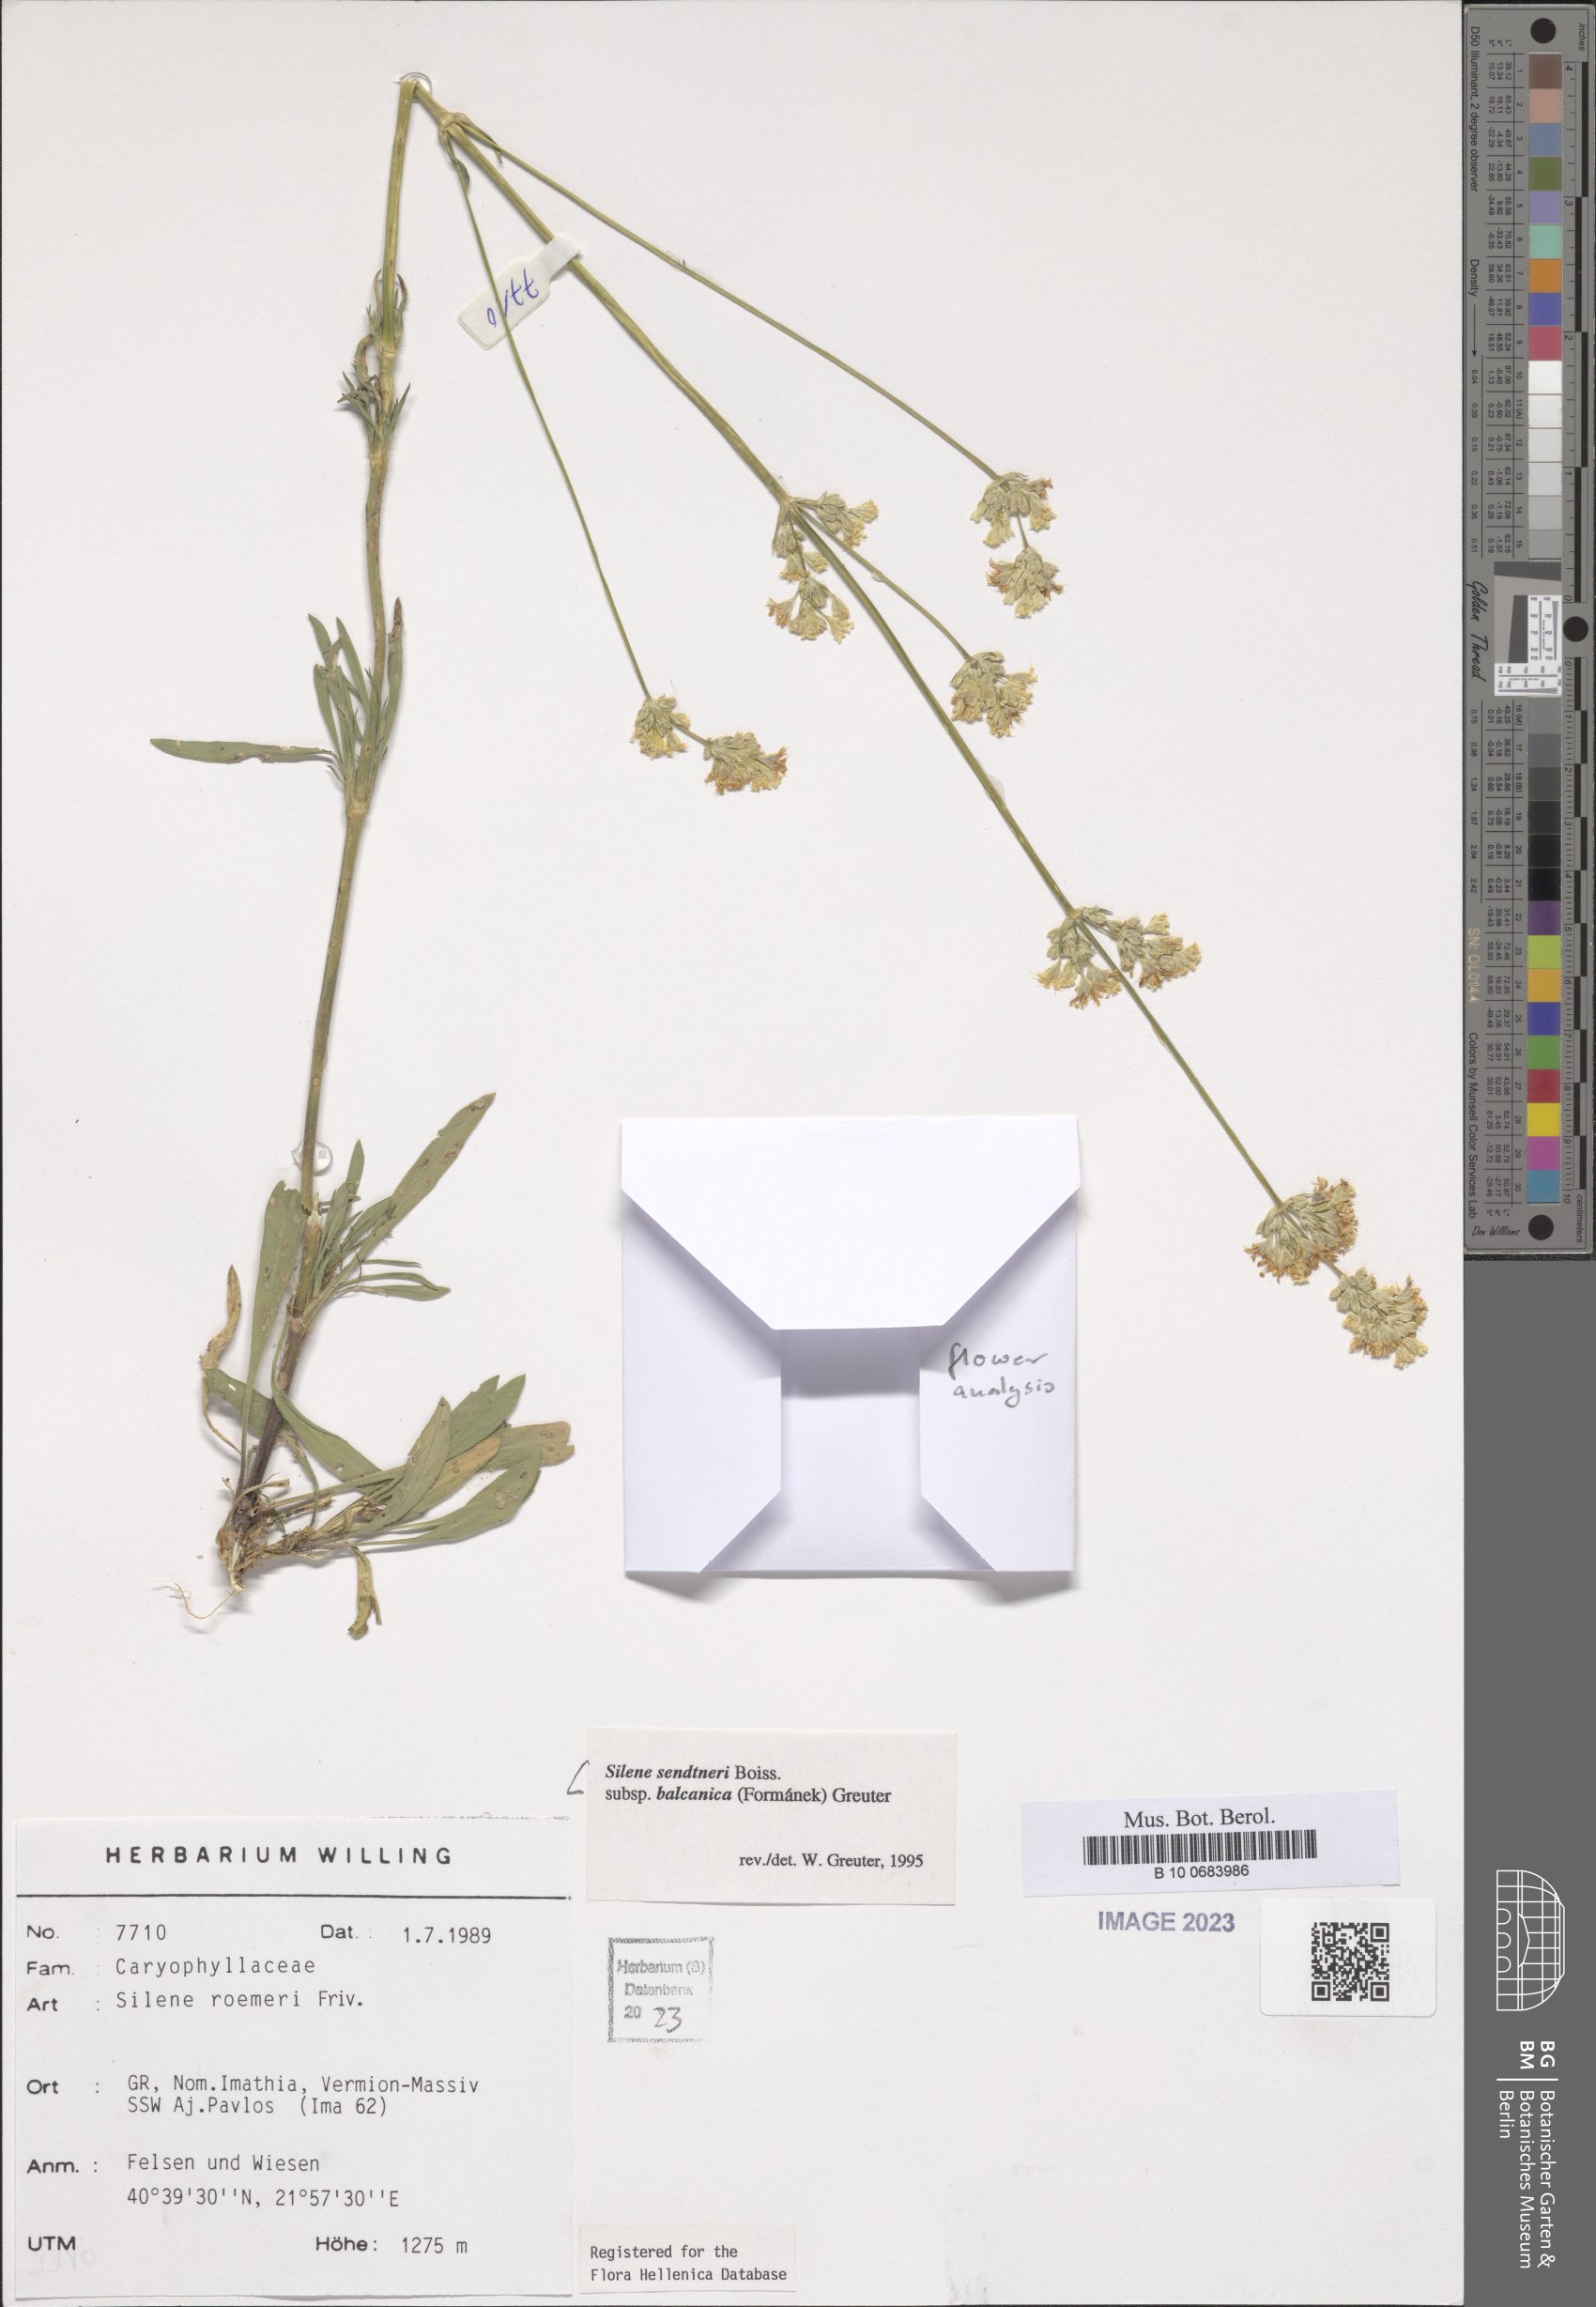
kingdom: Plantae
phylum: Tracheophyta
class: Magnoliopsida
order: Caryophyllales
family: Caryophyllaceae
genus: Silene
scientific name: Silene sendtneri
